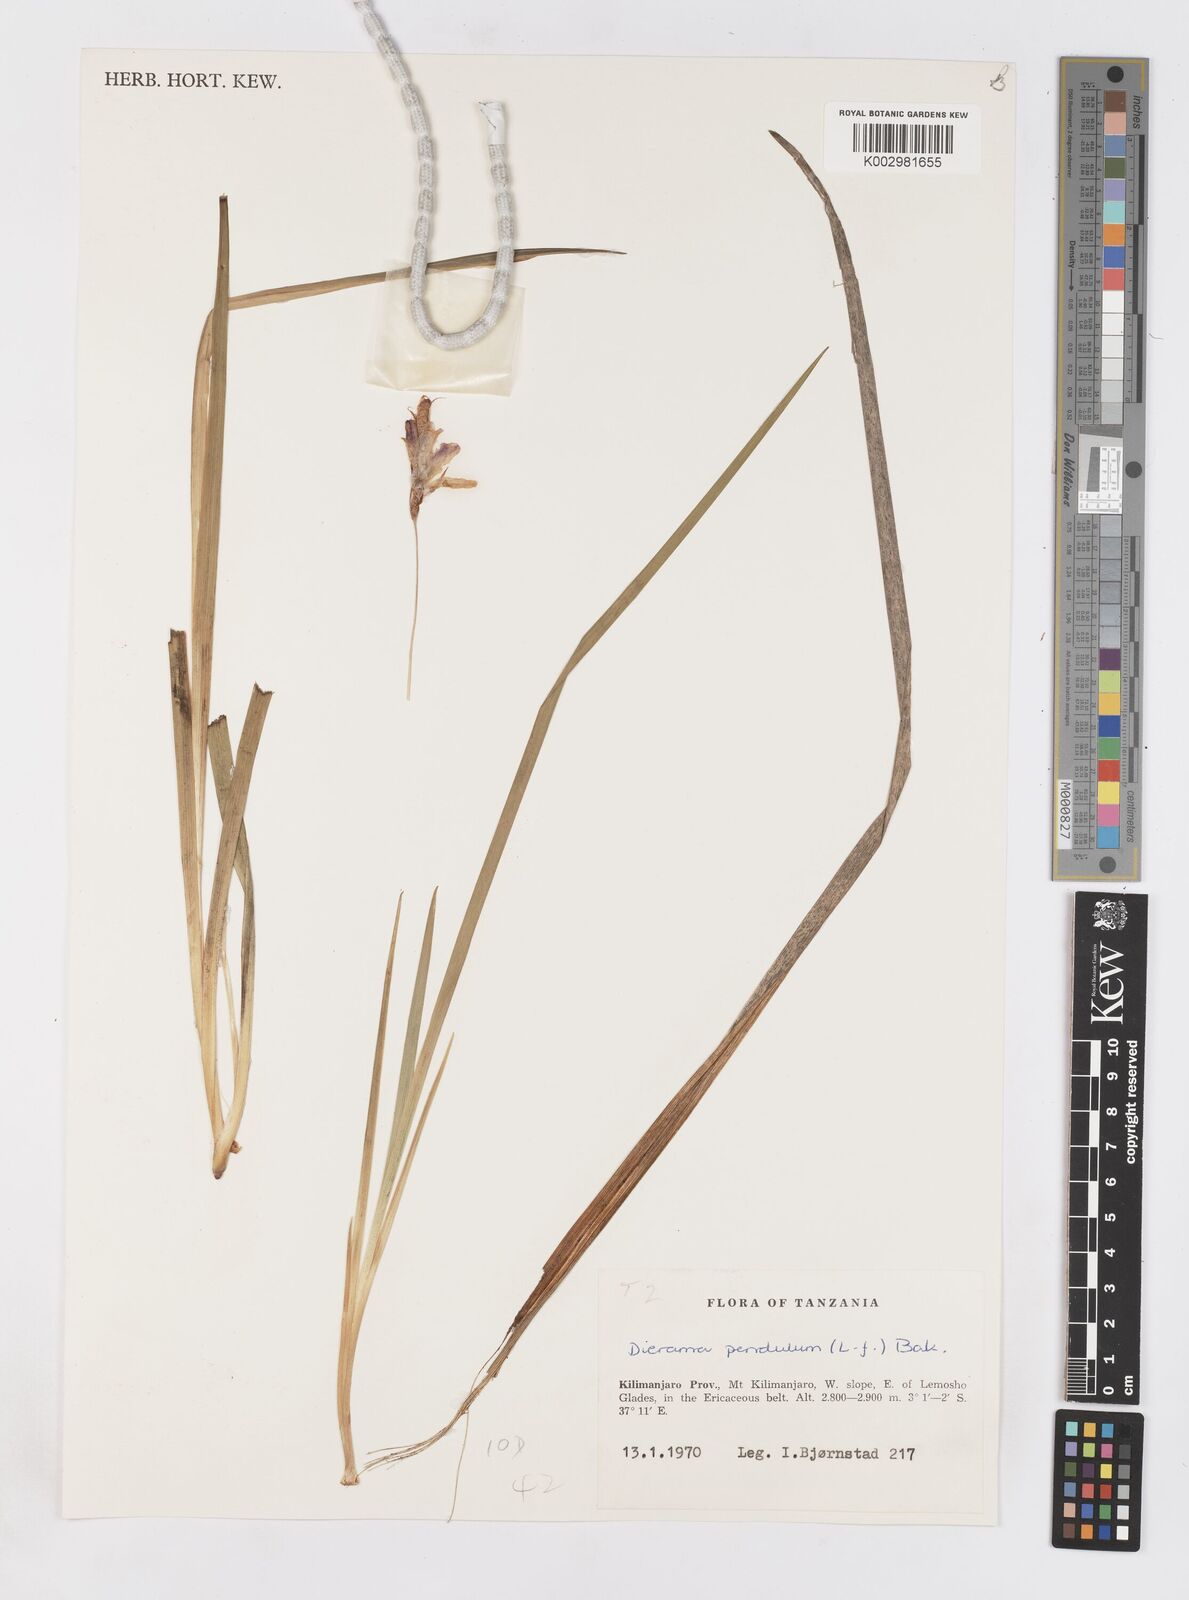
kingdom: Plantae
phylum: Tracheophyta
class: Liliopsida
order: Asparagales
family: Iridaceae
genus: Dierama
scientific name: Dierama cupuliflorum
